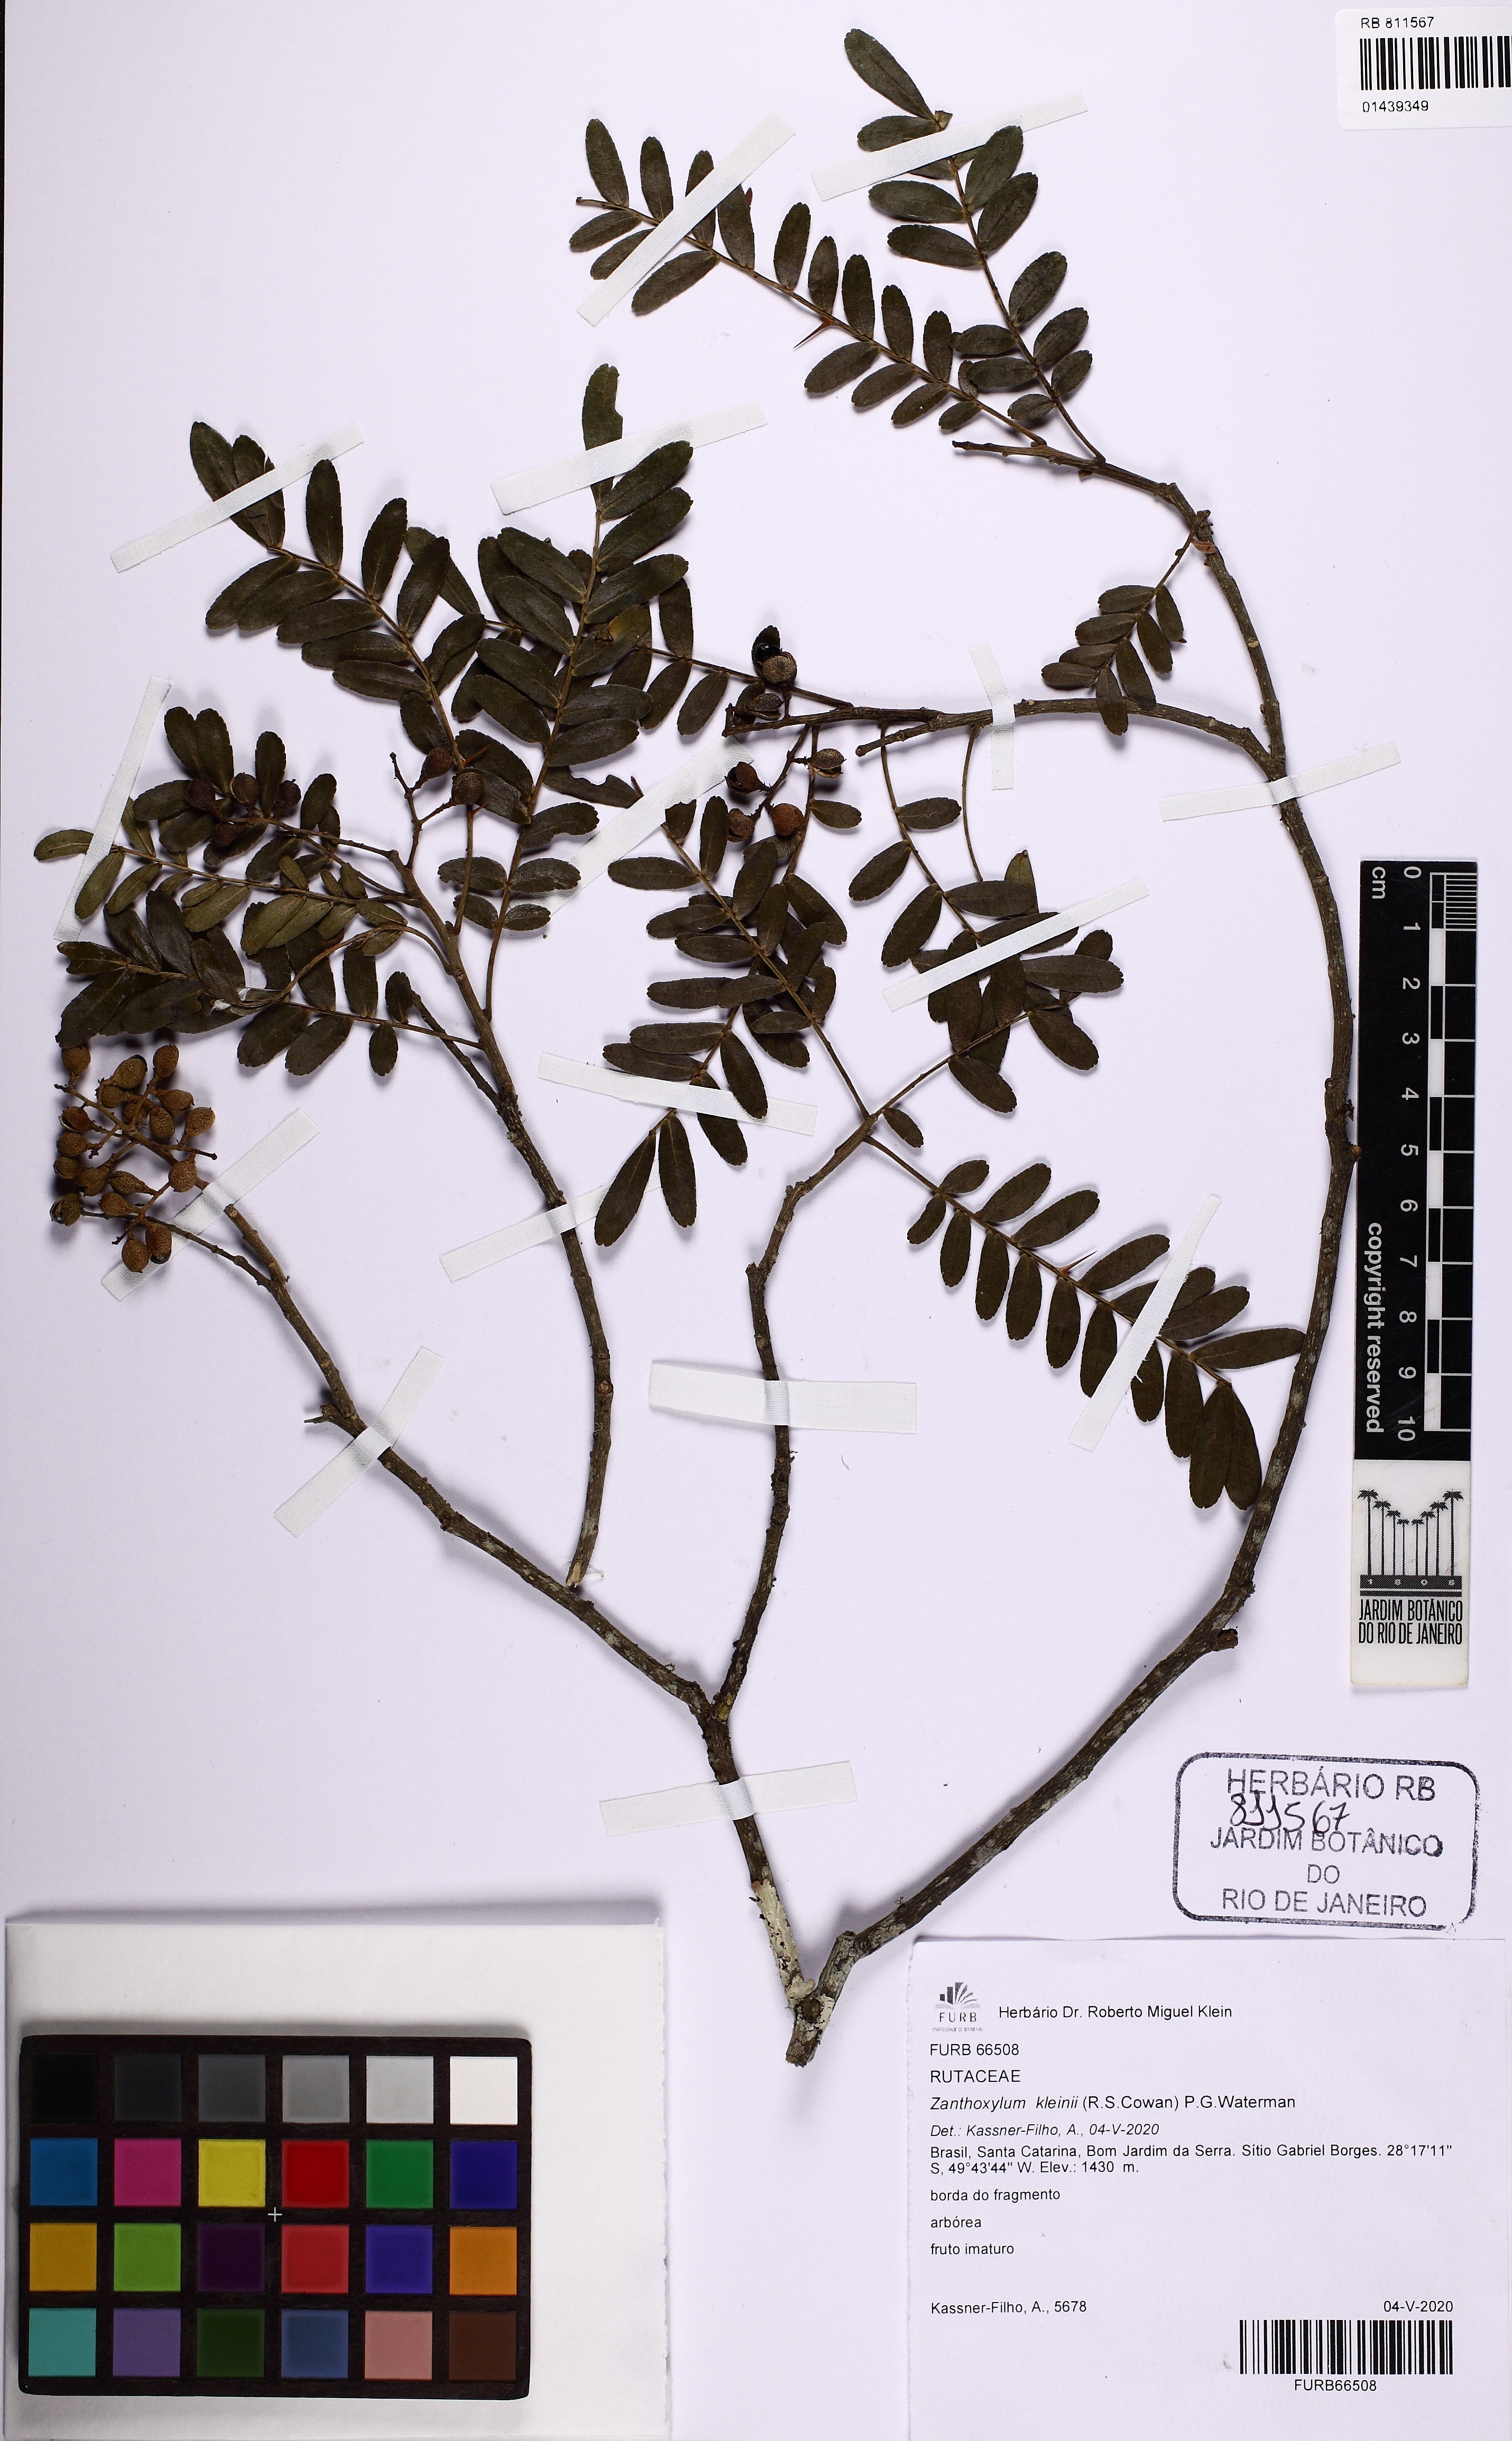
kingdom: Plantae
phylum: Tracheophyta
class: Magnoliopsida
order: Sapindales
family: Rutaceae
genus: Zanthoxylum
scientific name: Zanthoxylum kleinii
